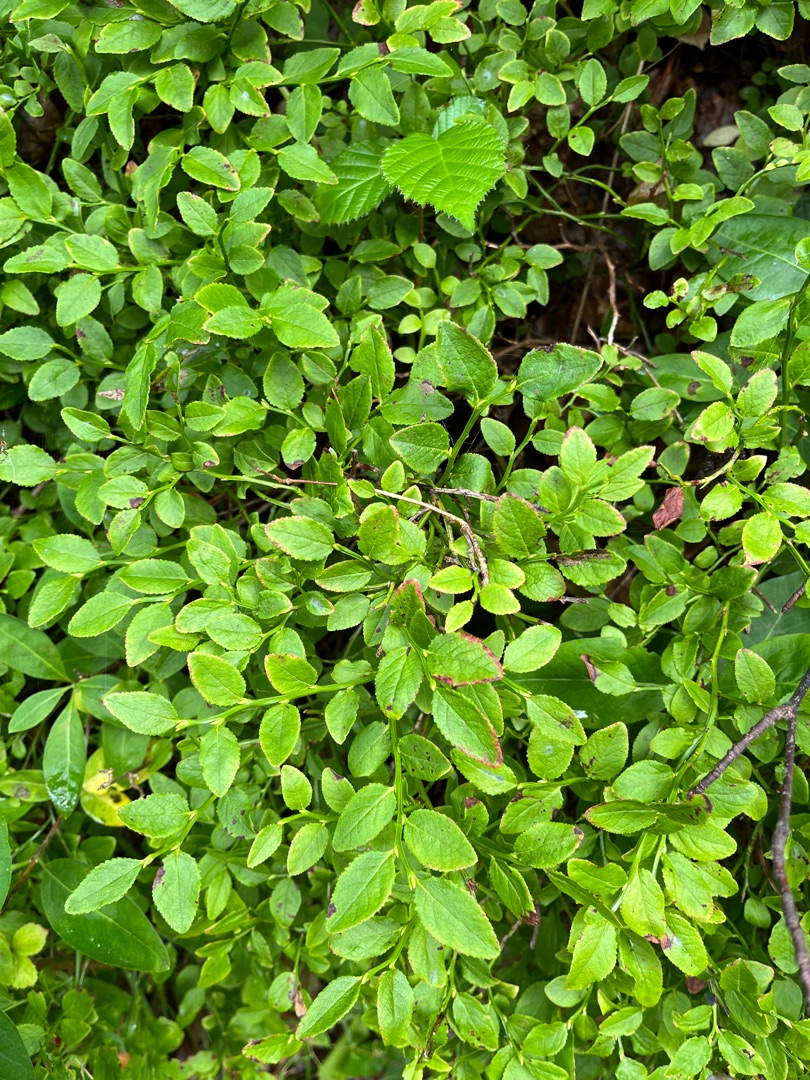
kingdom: Plantae
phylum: Tracheophyta
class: Magnoliopsida
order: Ericales
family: Ericaceae
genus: Vaccinium
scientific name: Vaccinium myrtillus
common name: Blåbær
